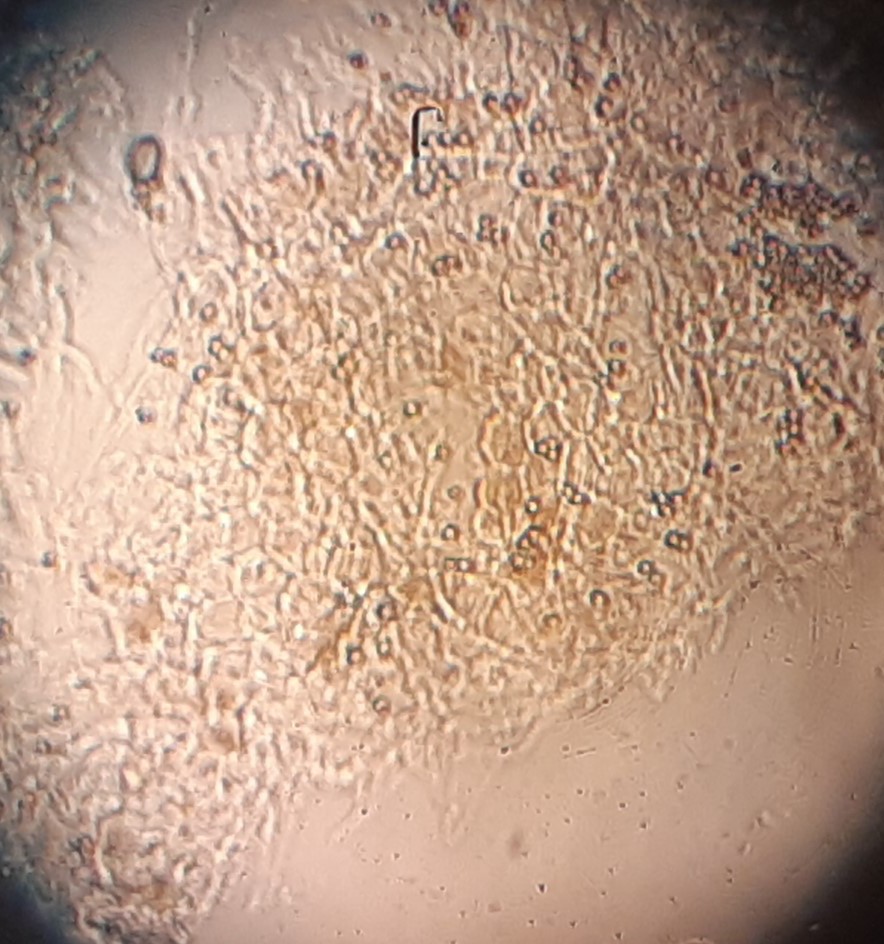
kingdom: Fungi
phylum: Basidiomycota
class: Agaricomycetes
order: Agaricales
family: Pluteaceae
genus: Pluteus
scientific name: Pluteus phlebophorus
